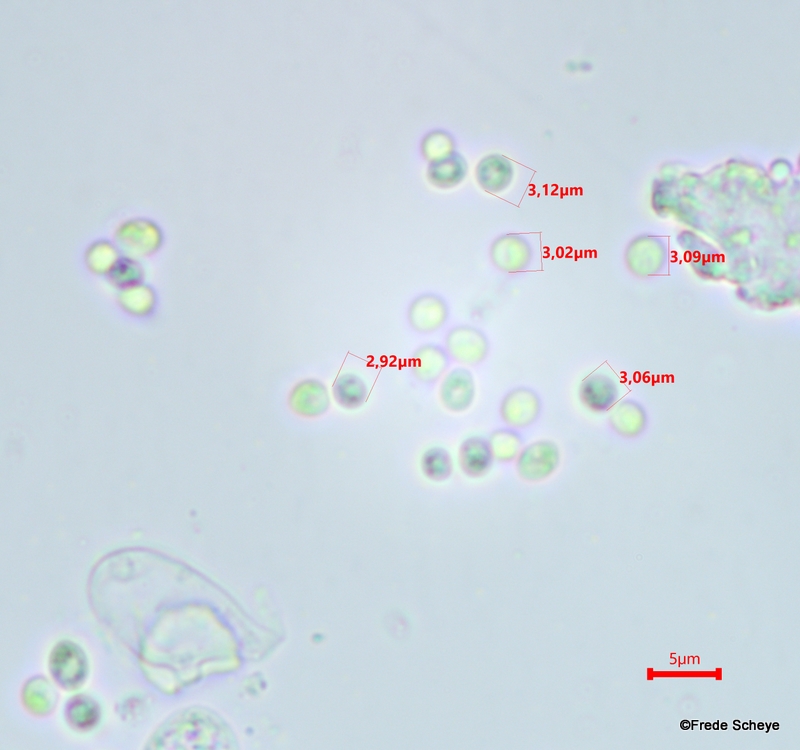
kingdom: Fungi
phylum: Basidiomycota
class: Tremellomycetes
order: Tremellales
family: Tremellaceae
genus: Tremella
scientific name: Tremella mesenterica
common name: gul bævresvamp
